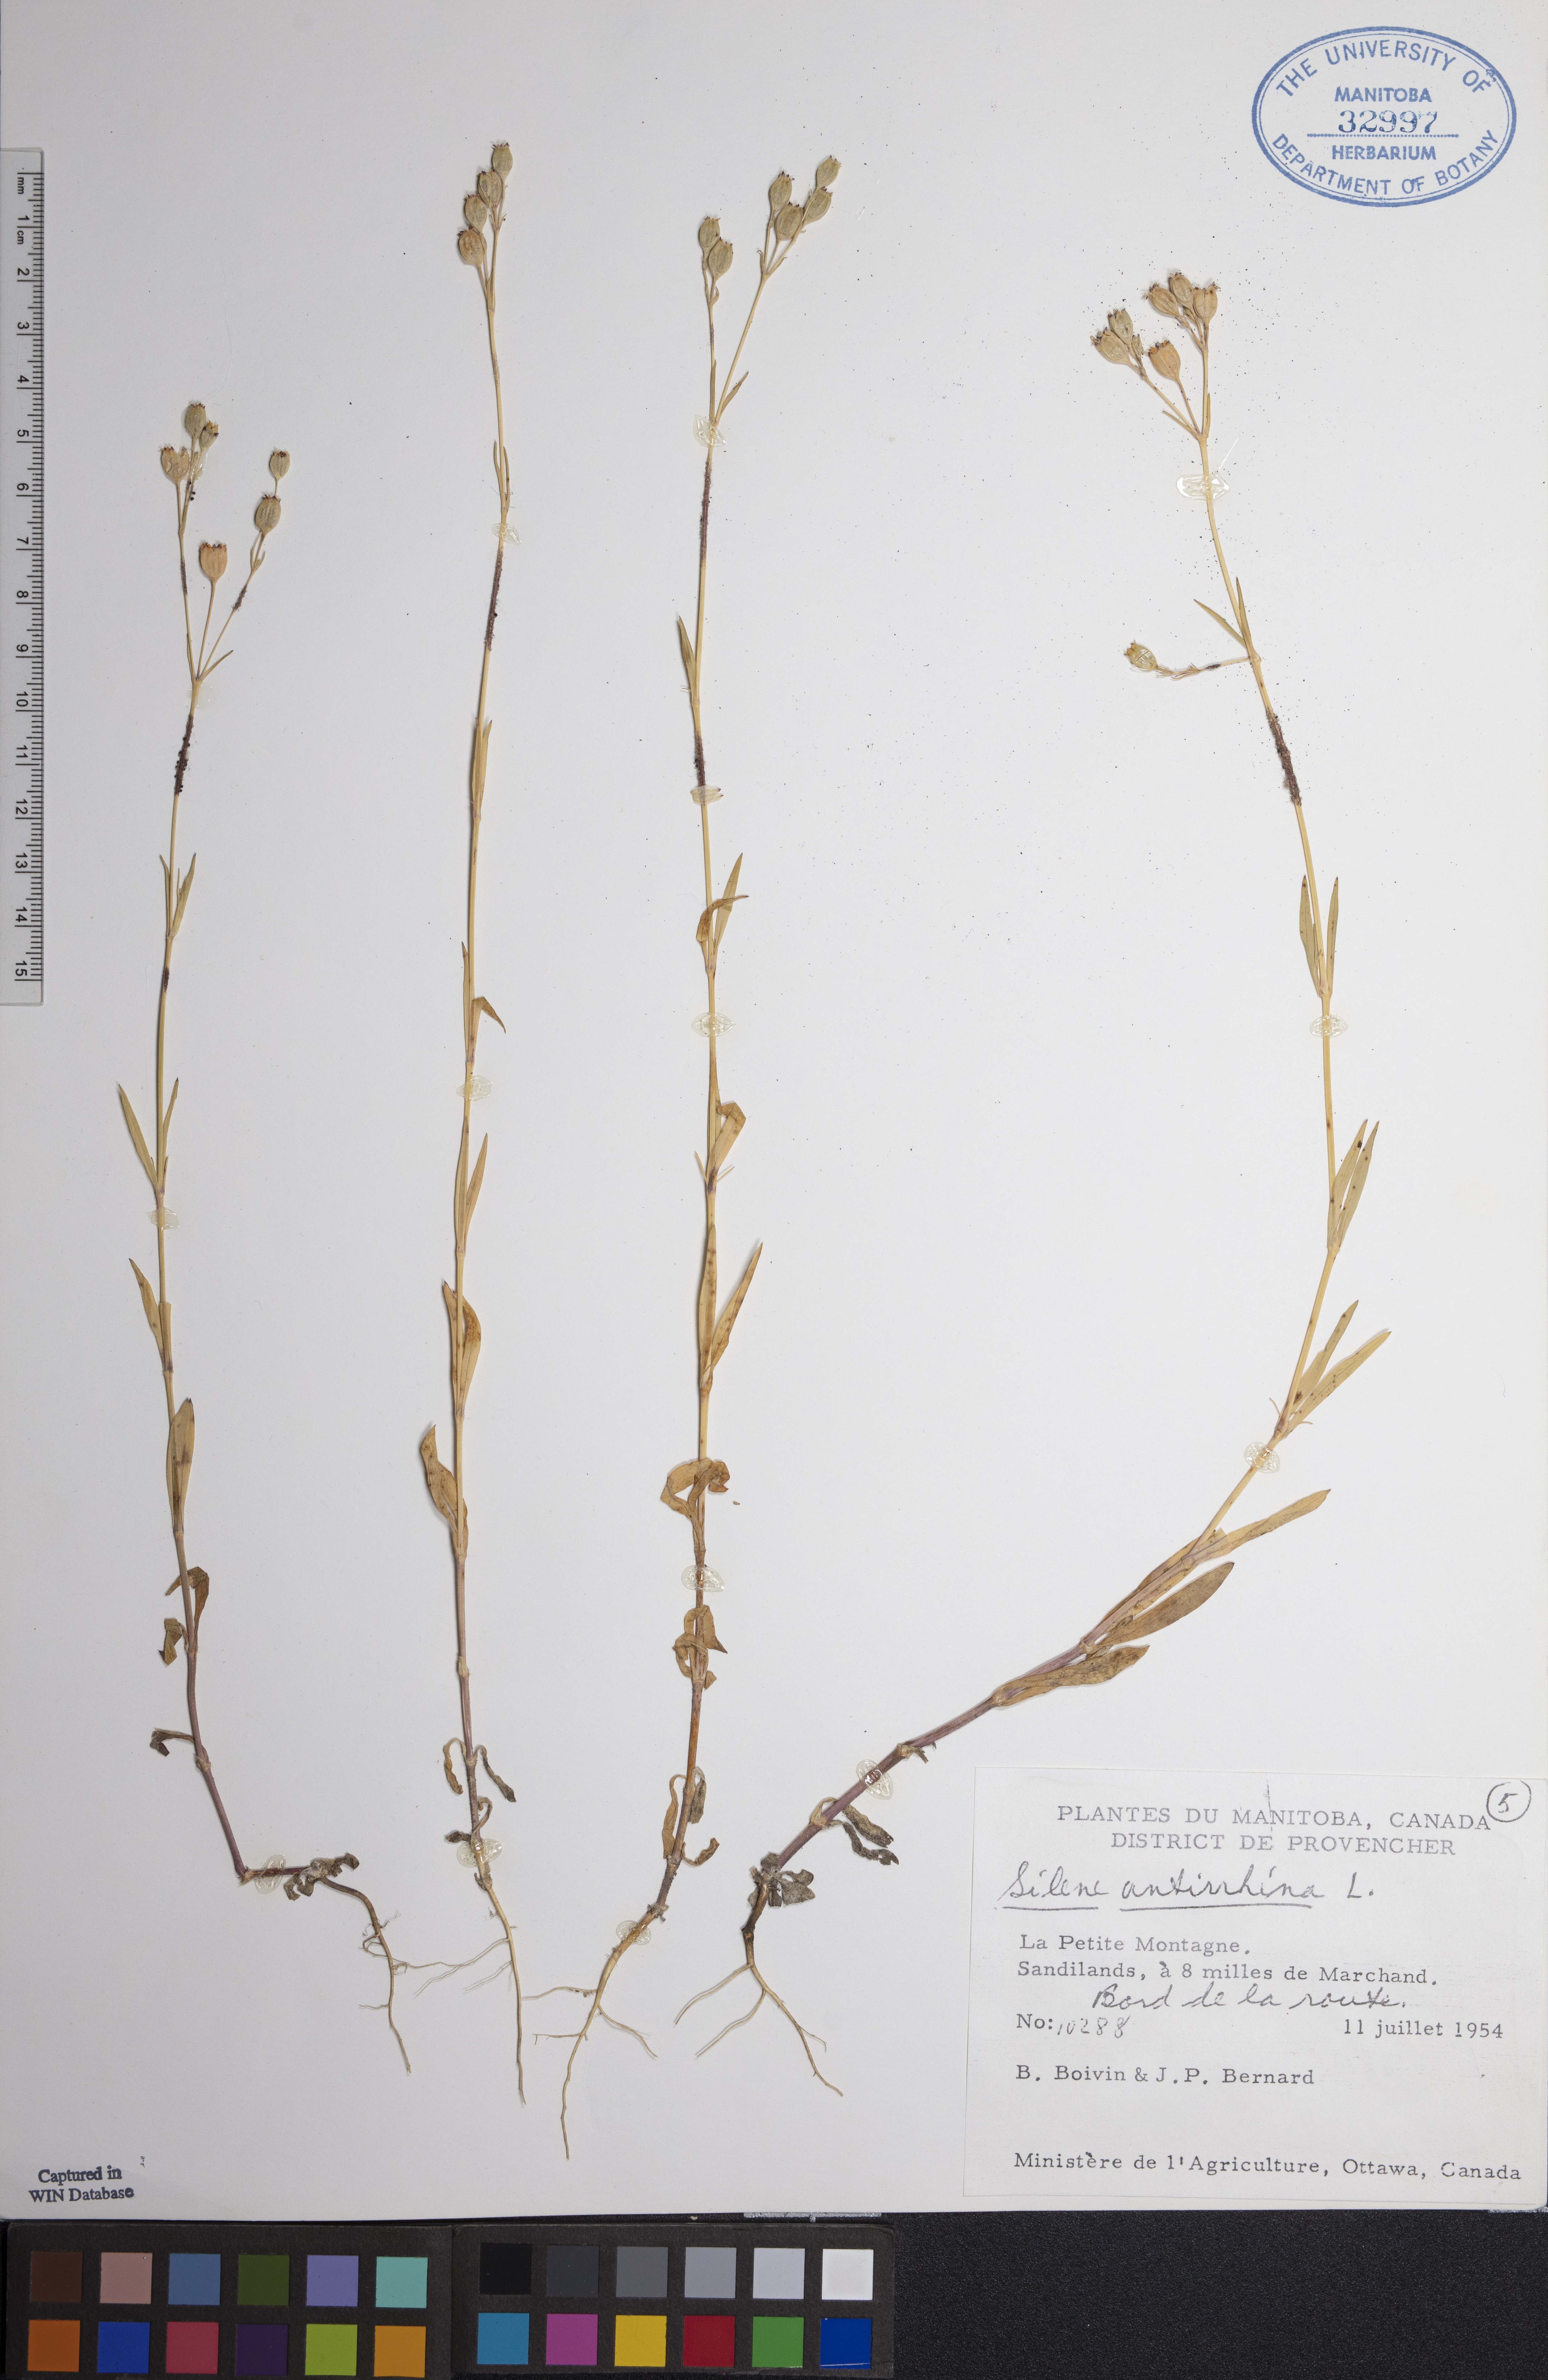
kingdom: Plantae
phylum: Tracheophyta
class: Magnoliopsida
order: Caryophyllales
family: Caryophyllaceae
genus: Silene
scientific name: Silene antirrhina
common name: Sleepy catchfly
